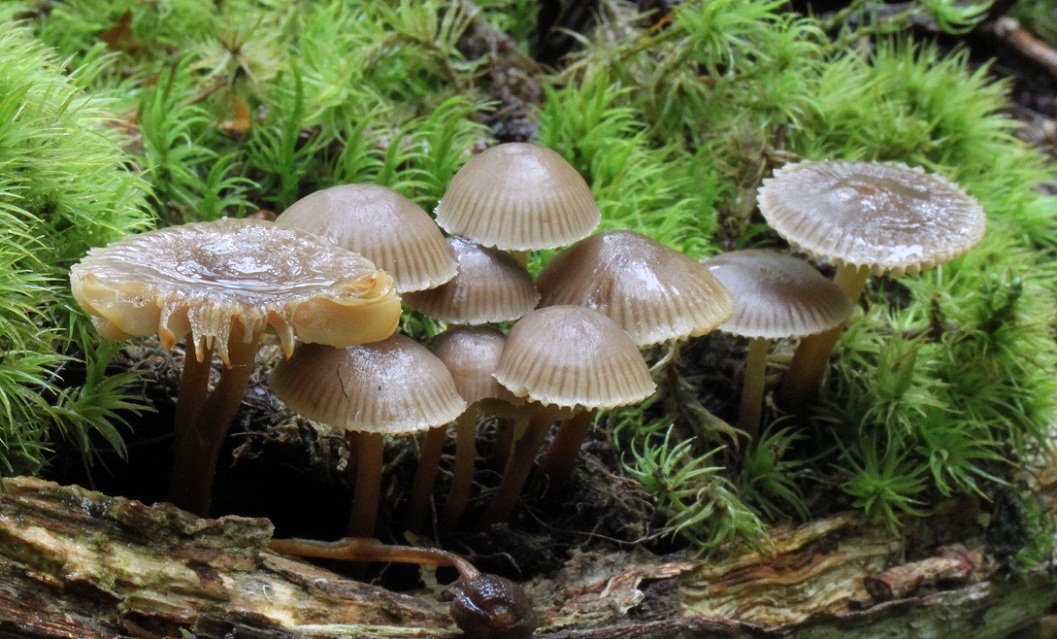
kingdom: Fungi
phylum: Basidiomycota
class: Agaricomycetes
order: Agaricales
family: Mycenaceae
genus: Mycena
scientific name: Mycena inclinata
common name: nikkende huesvamp
